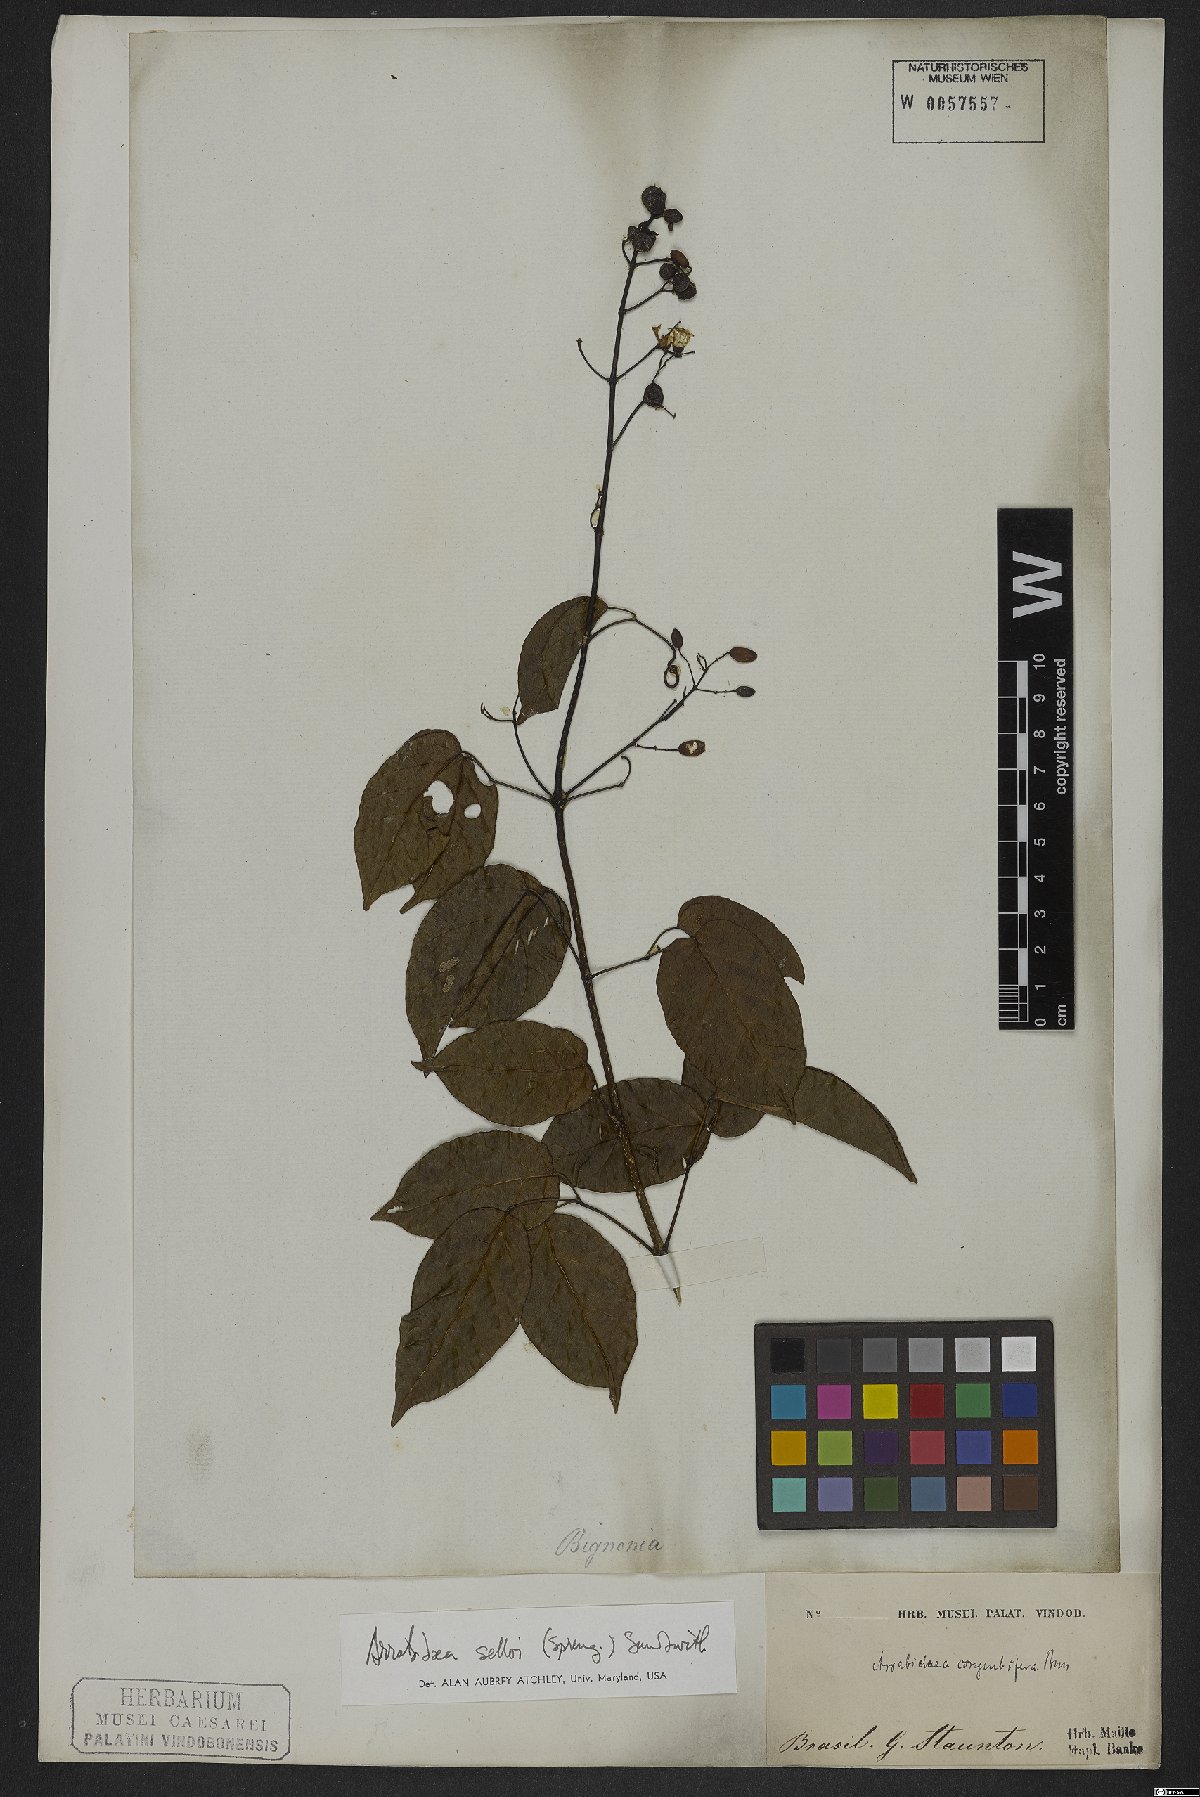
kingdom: Plantae
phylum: Tracheophyta
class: Magnoliopsida
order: Lamiales
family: Bignoniaceae
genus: Tanaecium
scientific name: Tanaecium selloi
